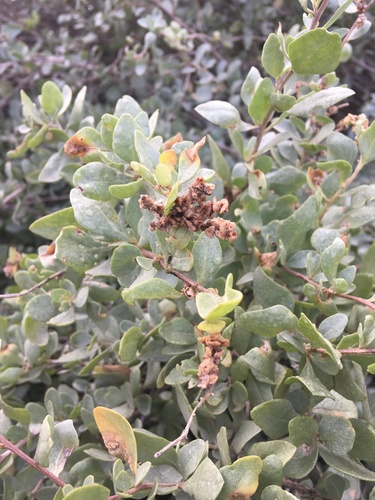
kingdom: Plantae
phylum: Tracheophyta
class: Magnoliopsida
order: Caryophyllales
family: Amaranthaceae
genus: Atriplex
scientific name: Atriplex halimus
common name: Shrubby orache
